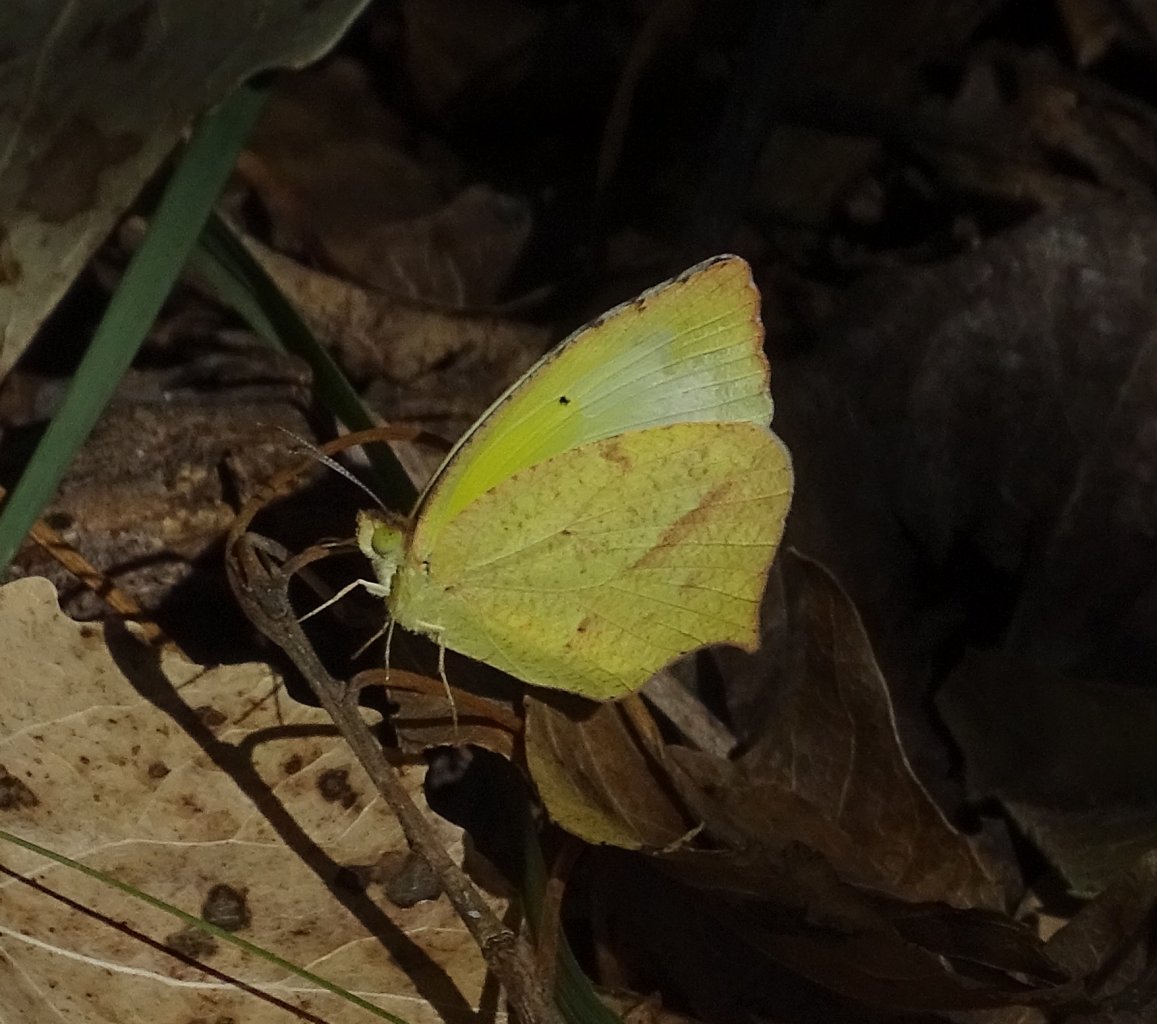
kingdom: Animalia
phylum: Arthropoda
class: Insecta
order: Lepidoptera
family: Pieridae
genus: Eurema
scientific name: Eurema mexicana
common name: Mexican Yellow
